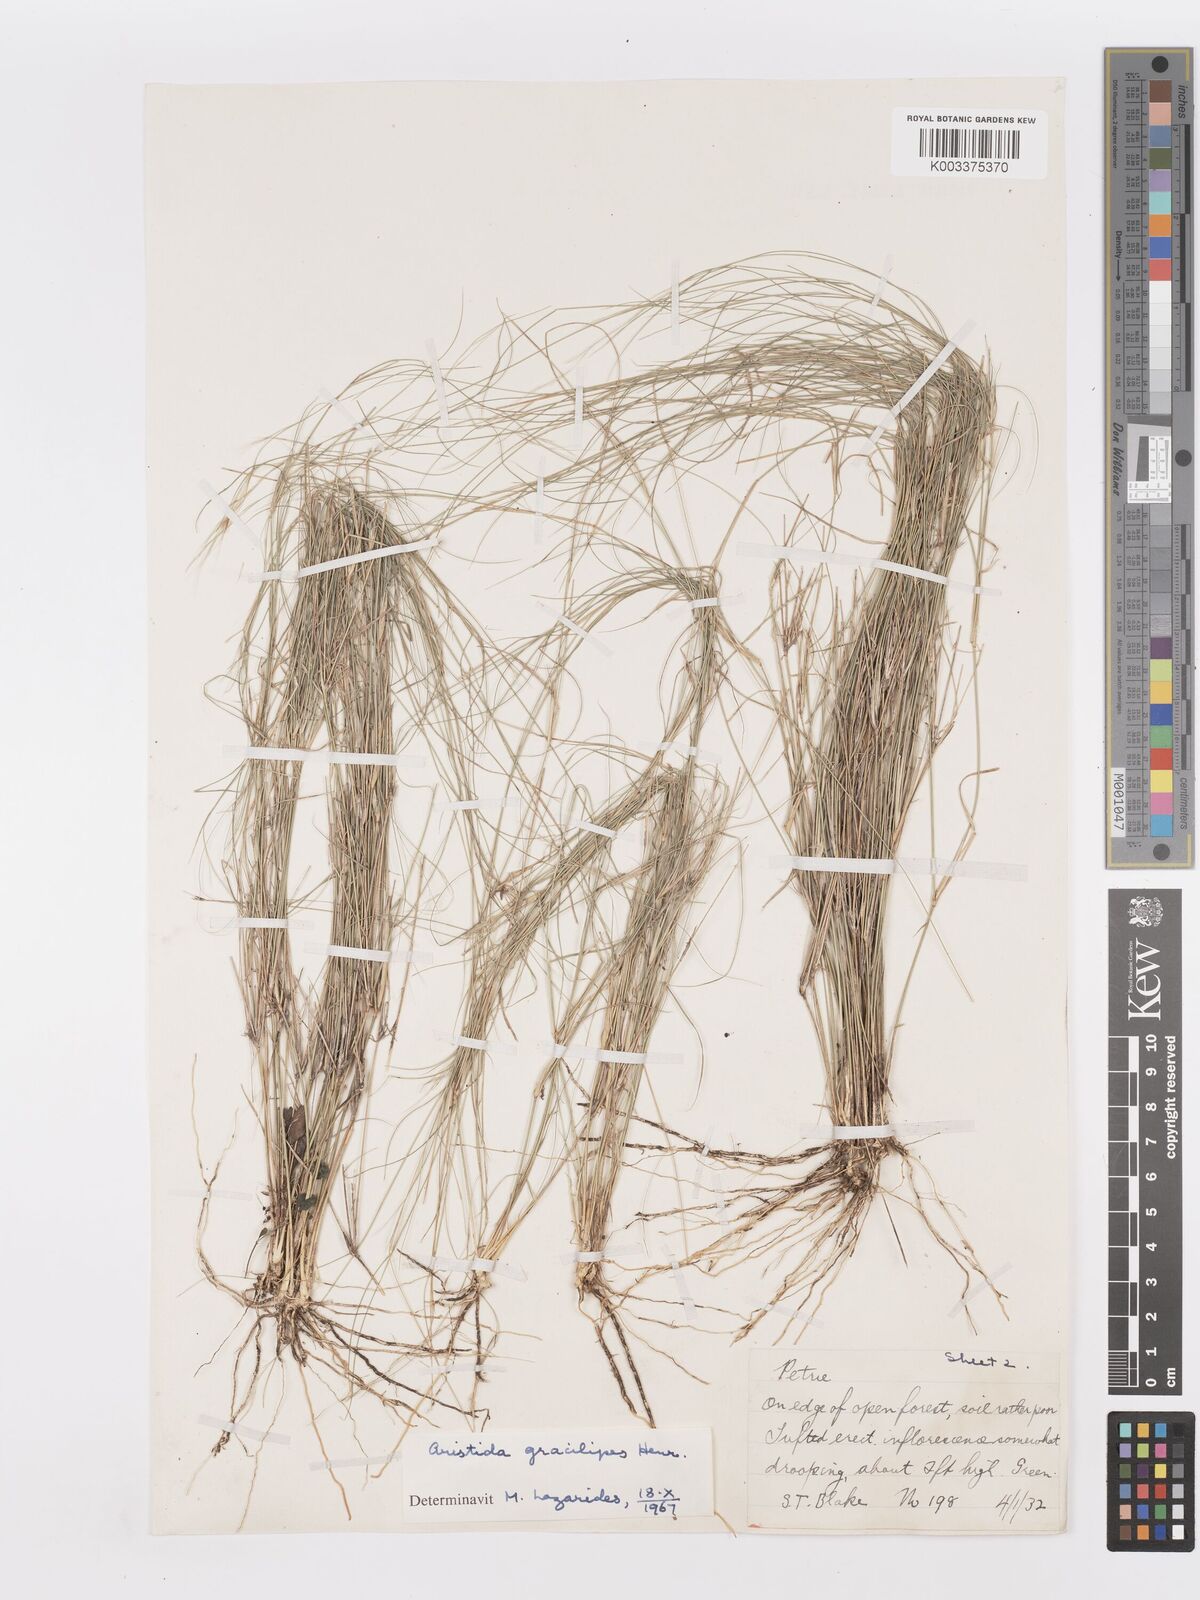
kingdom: Plantae
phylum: Tracheophyta
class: Liliopsida
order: Poales
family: Poaceae
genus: Aristida
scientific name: Aristida gracilipes
